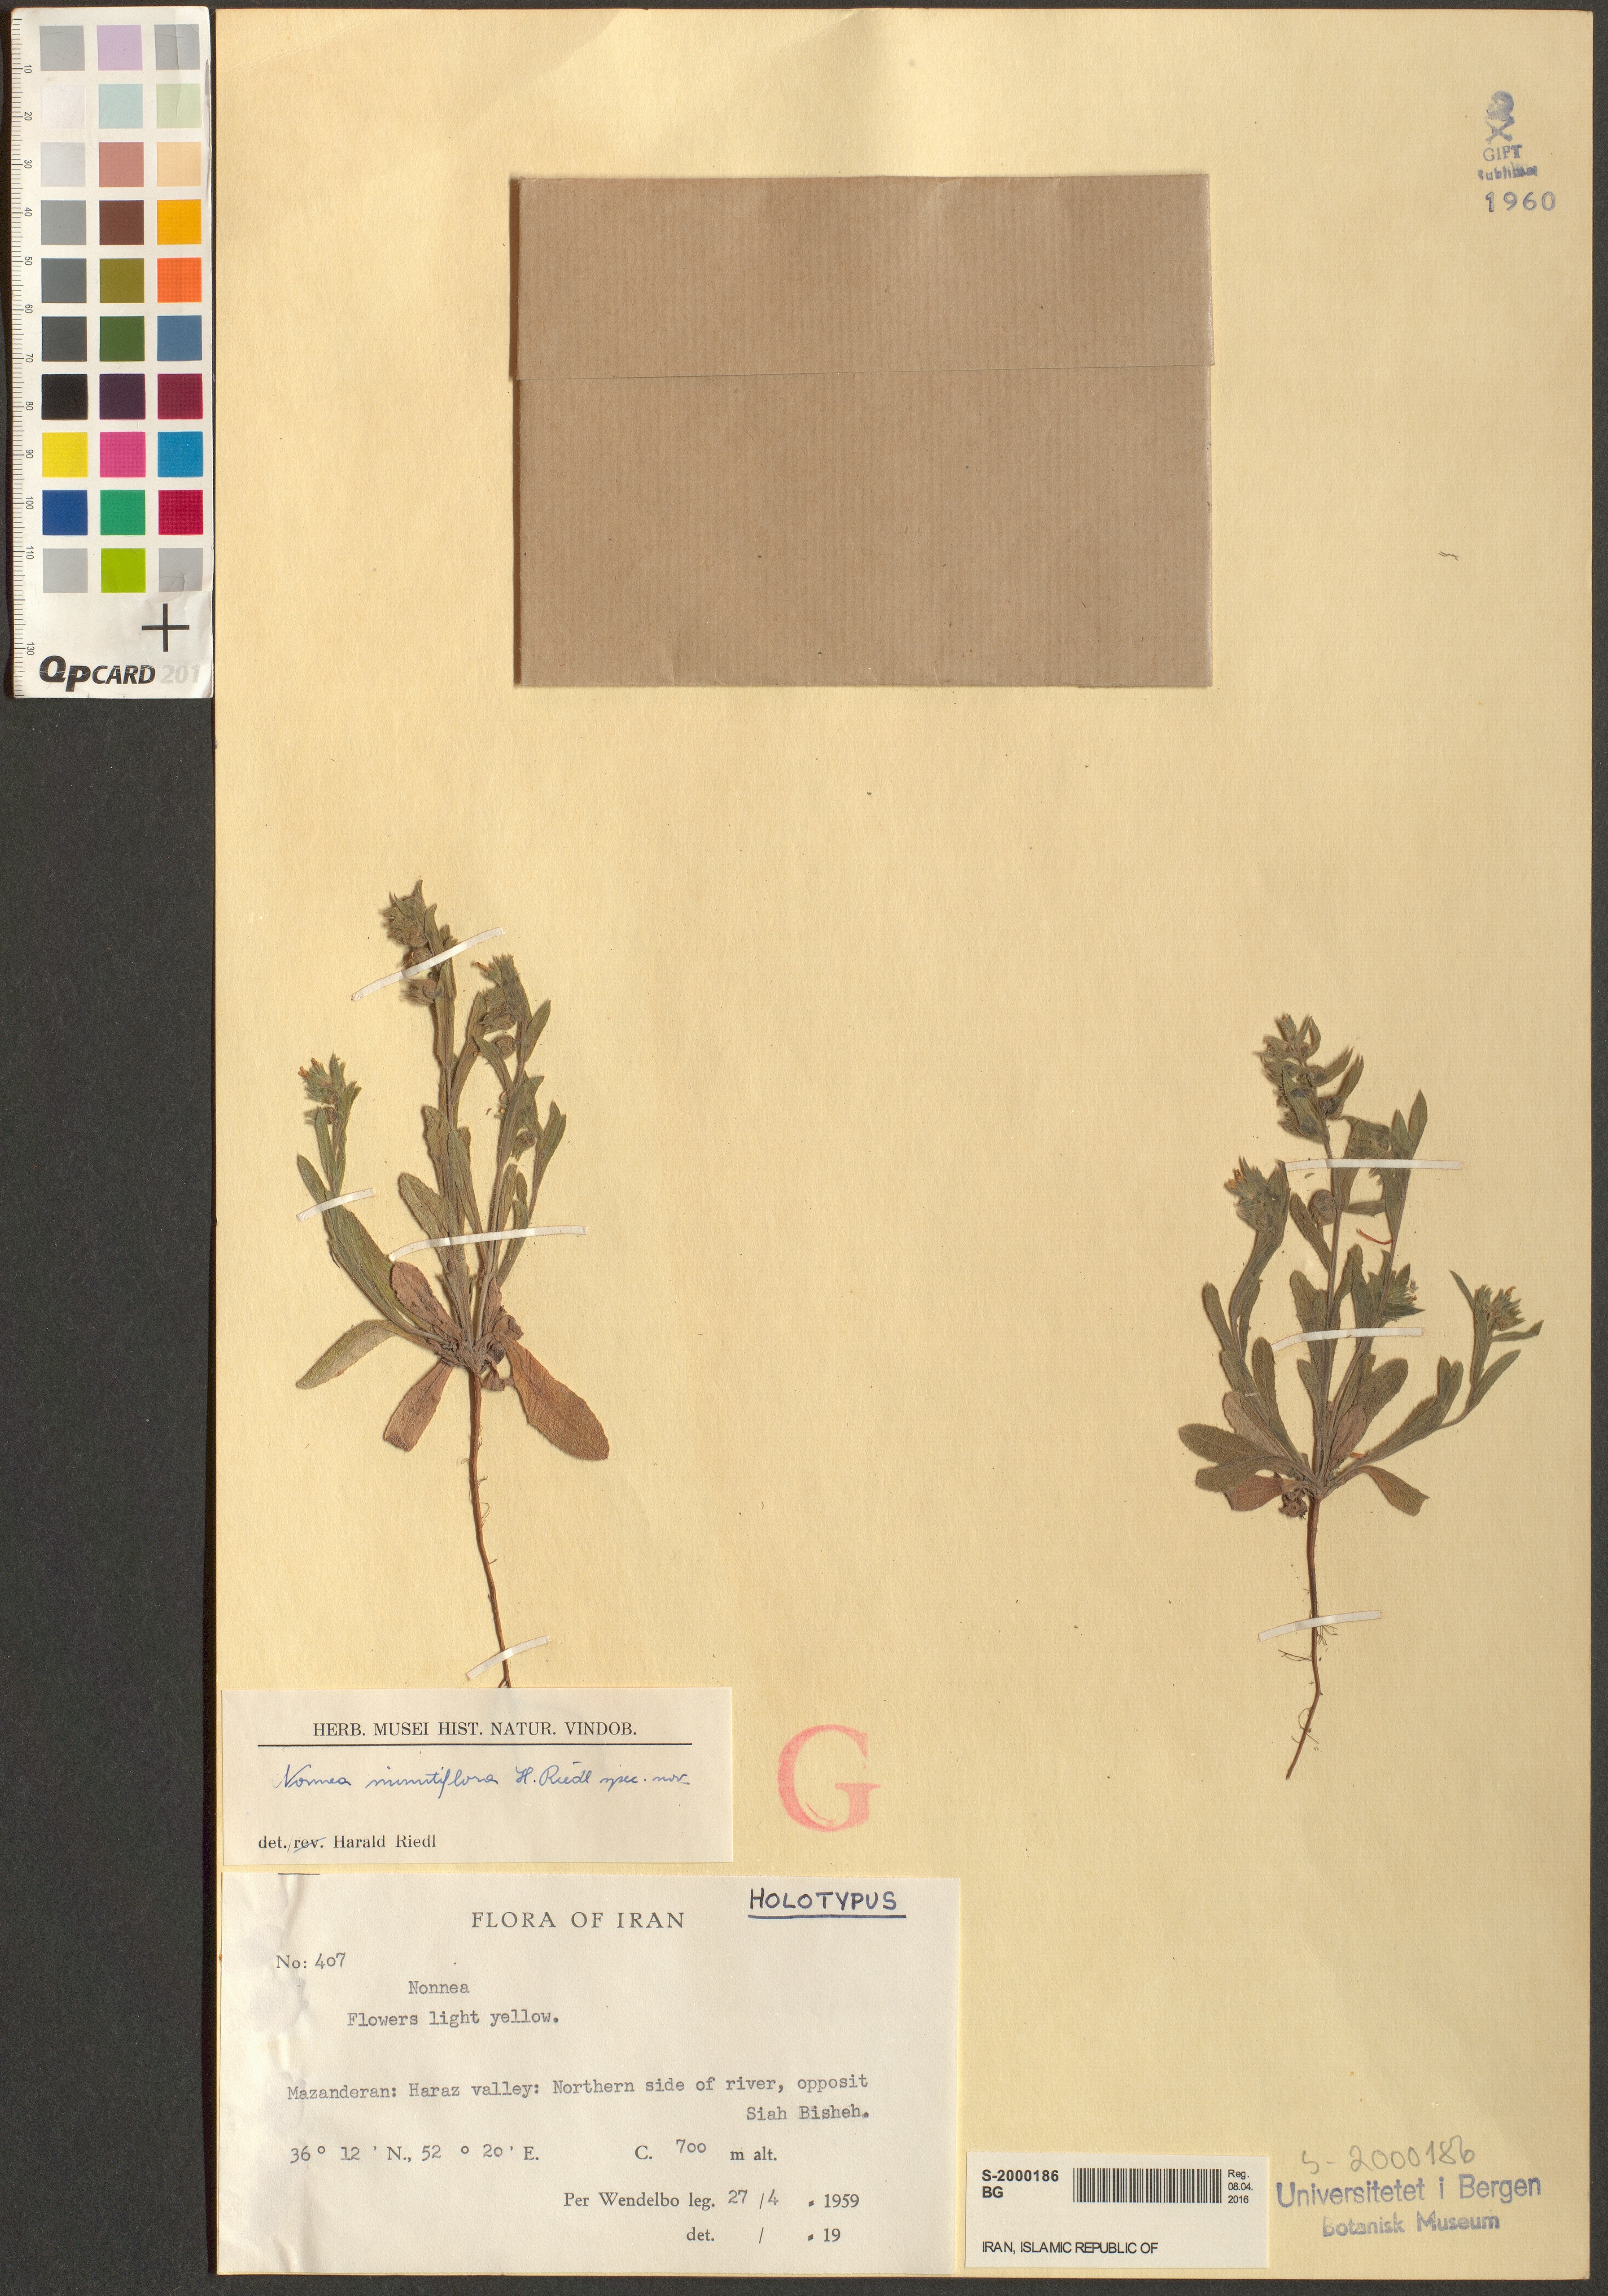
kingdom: Plantae
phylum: Tracheophyta
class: Magnoliopsida
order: Boraginales
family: Boraginaceae
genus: Nonea
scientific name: Nonea minutiflora
